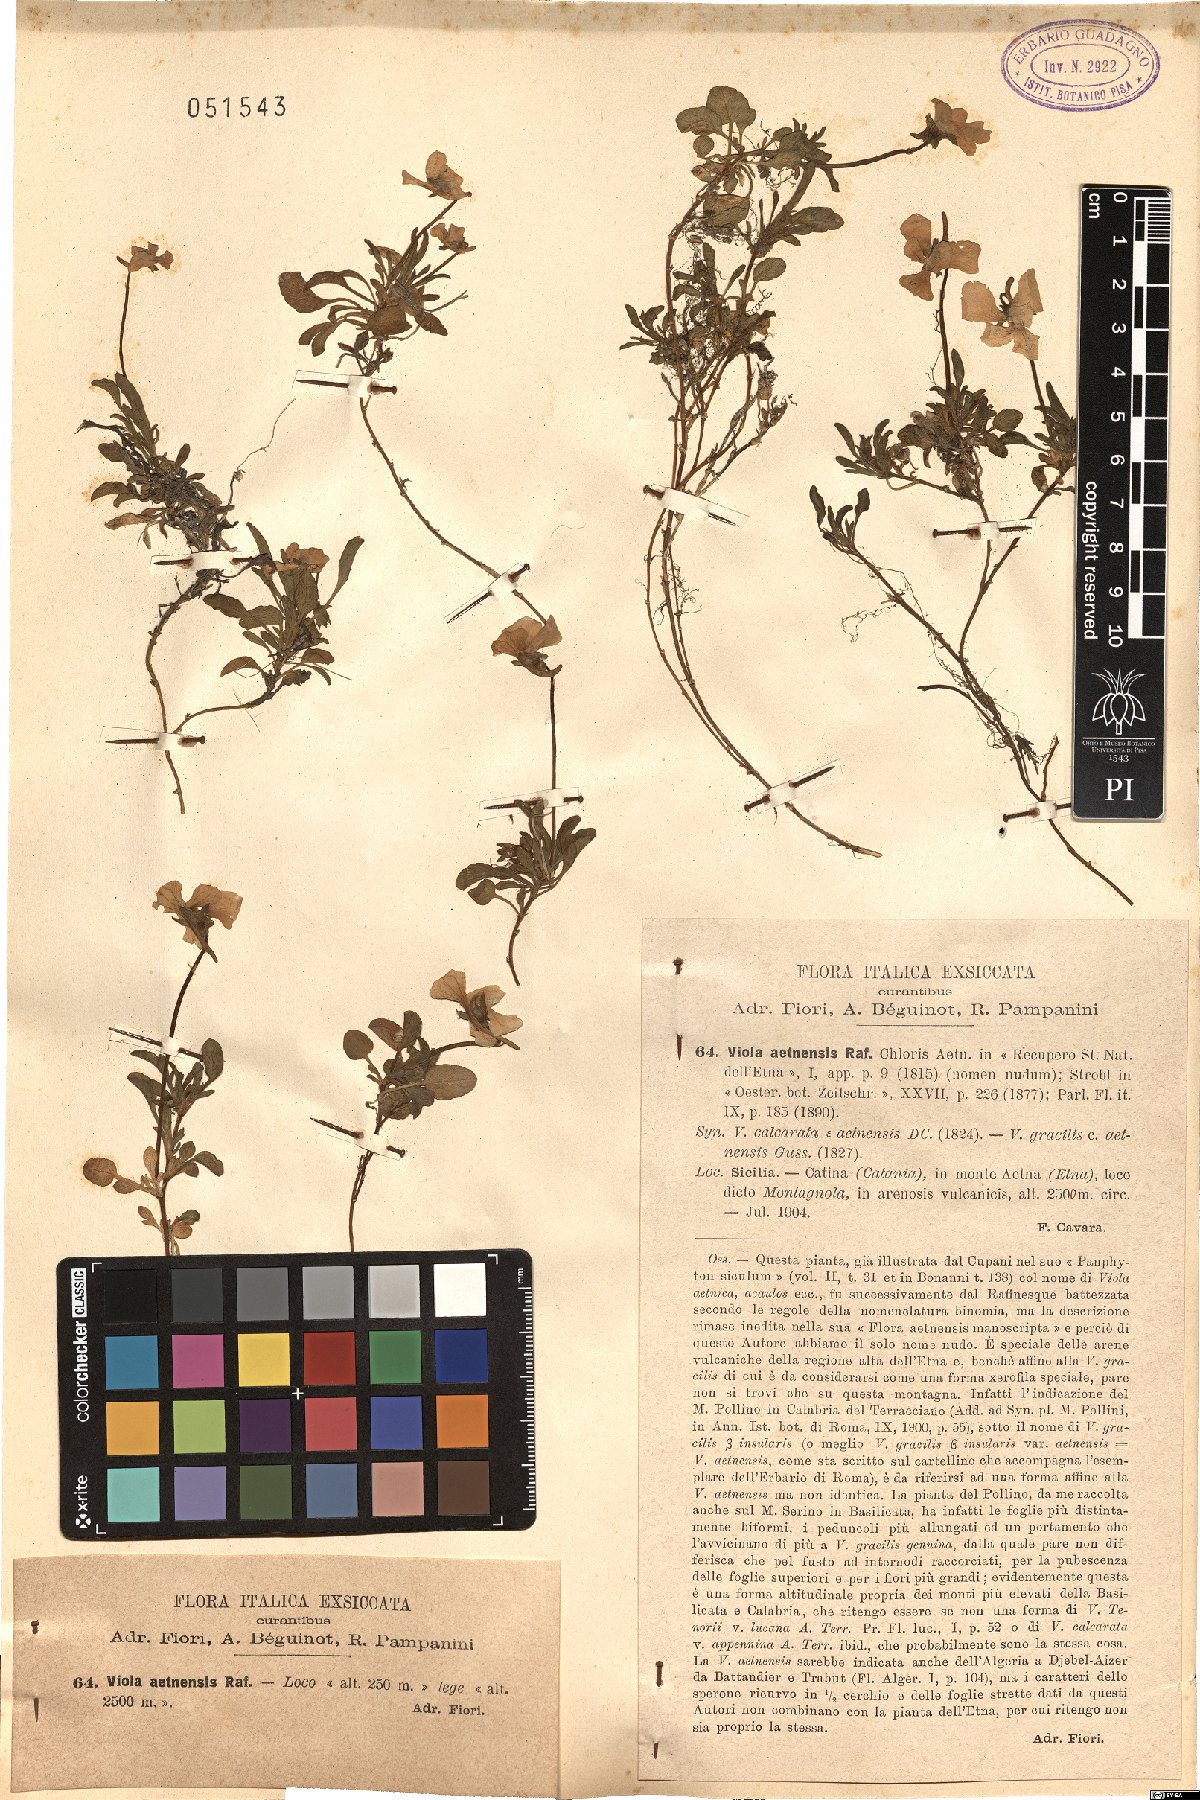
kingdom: Plantae
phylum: Tracheophyta
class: Magnoliopsida
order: Malpighiales
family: Violaceae
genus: Viola
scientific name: Viola aethnensis
